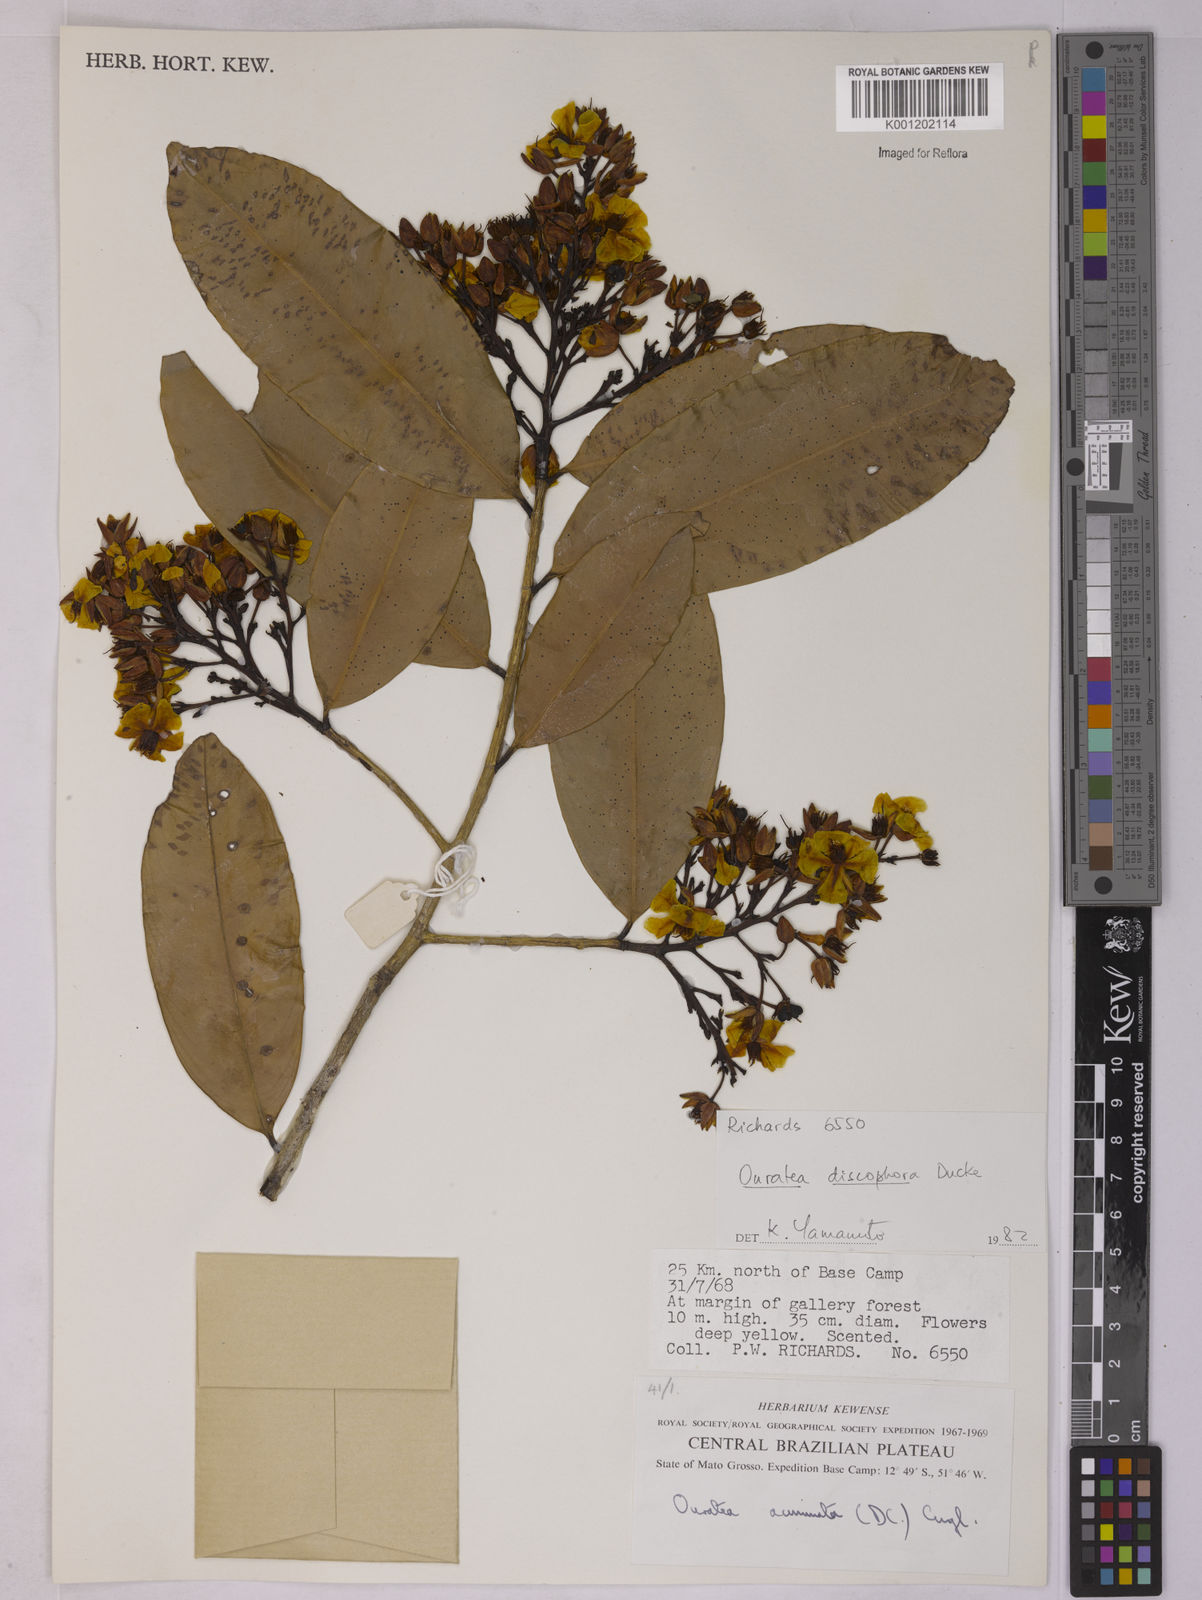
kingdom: Plantae
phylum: Tracheophyta
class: Magnoliopsida
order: Malpighiales
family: Ochnaceae
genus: Ouratea
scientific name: Ouratea discophora
